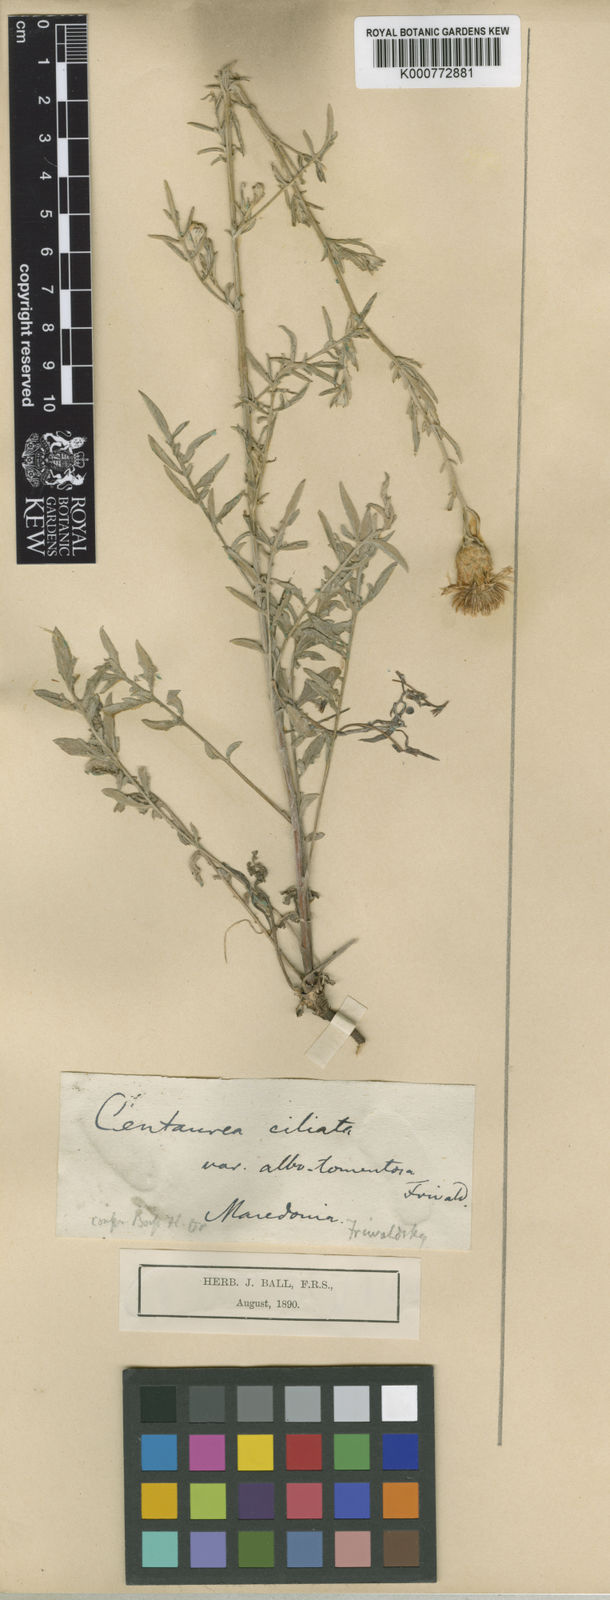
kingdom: Plantae
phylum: Tracheophyta
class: Magnoliopsida
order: Asterales
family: Asteraceae
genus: Centaurea
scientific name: Centaurea cuneifolia
